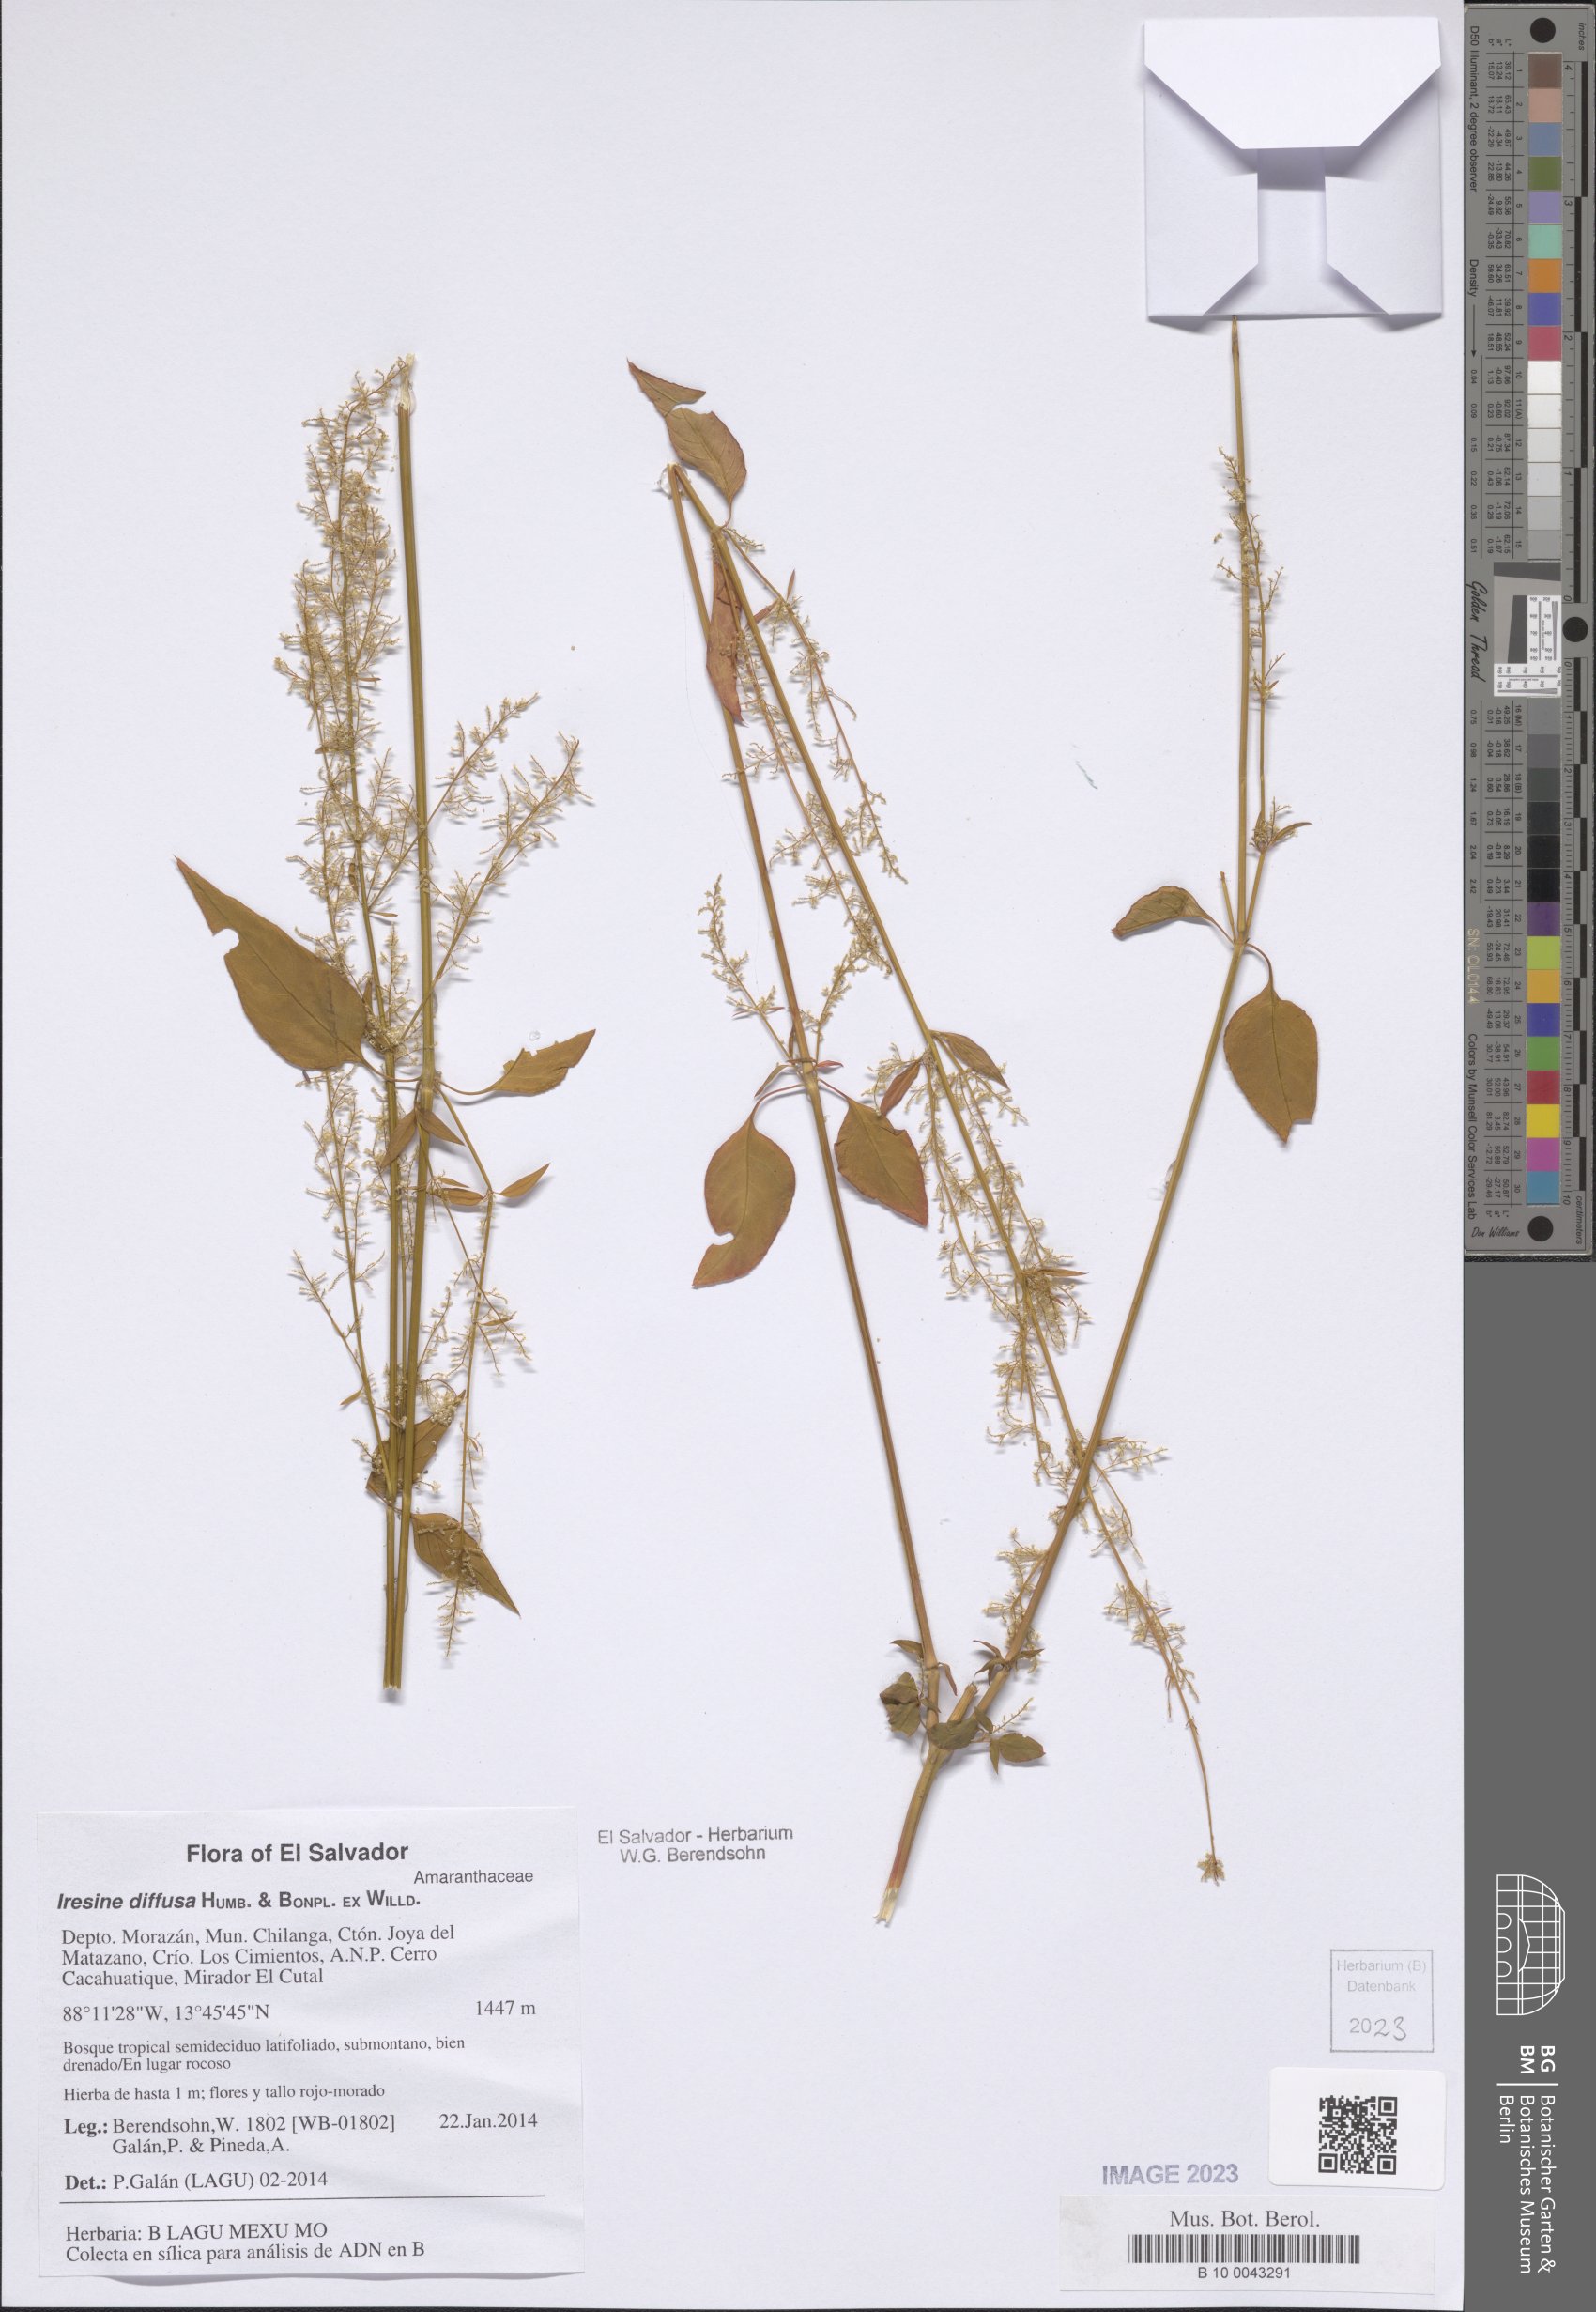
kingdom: Plantae
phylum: Tracheophyta
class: Magnoliopsida
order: Caryophyllales
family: Amaranthaceae
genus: Iresine
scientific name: Iresine diffusa
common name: Juba's-bush
